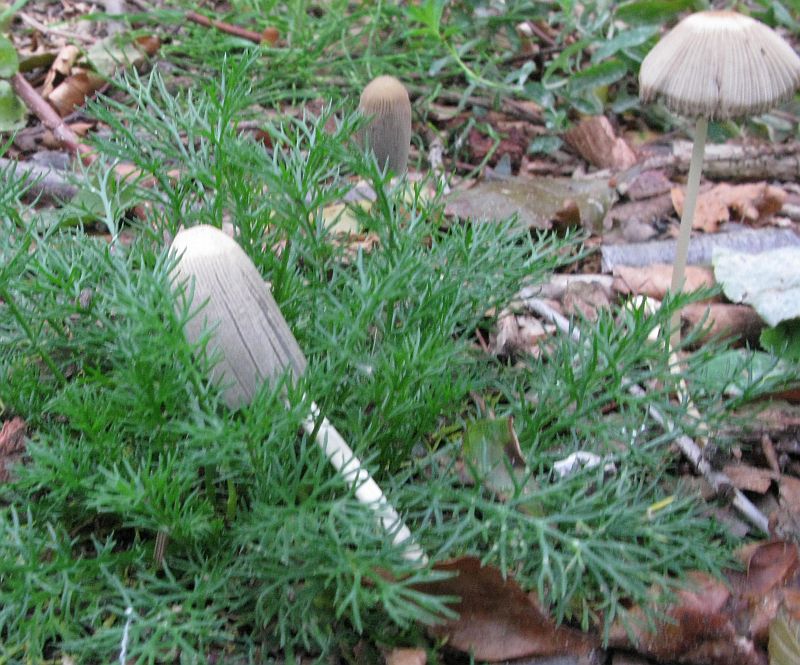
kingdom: Fungi
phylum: Basidiomycota
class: Agaricomycetes
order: Agaricales
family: Psathyrellaceae
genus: Parasola
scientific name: Parasola lactea
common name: glat hjulhat
